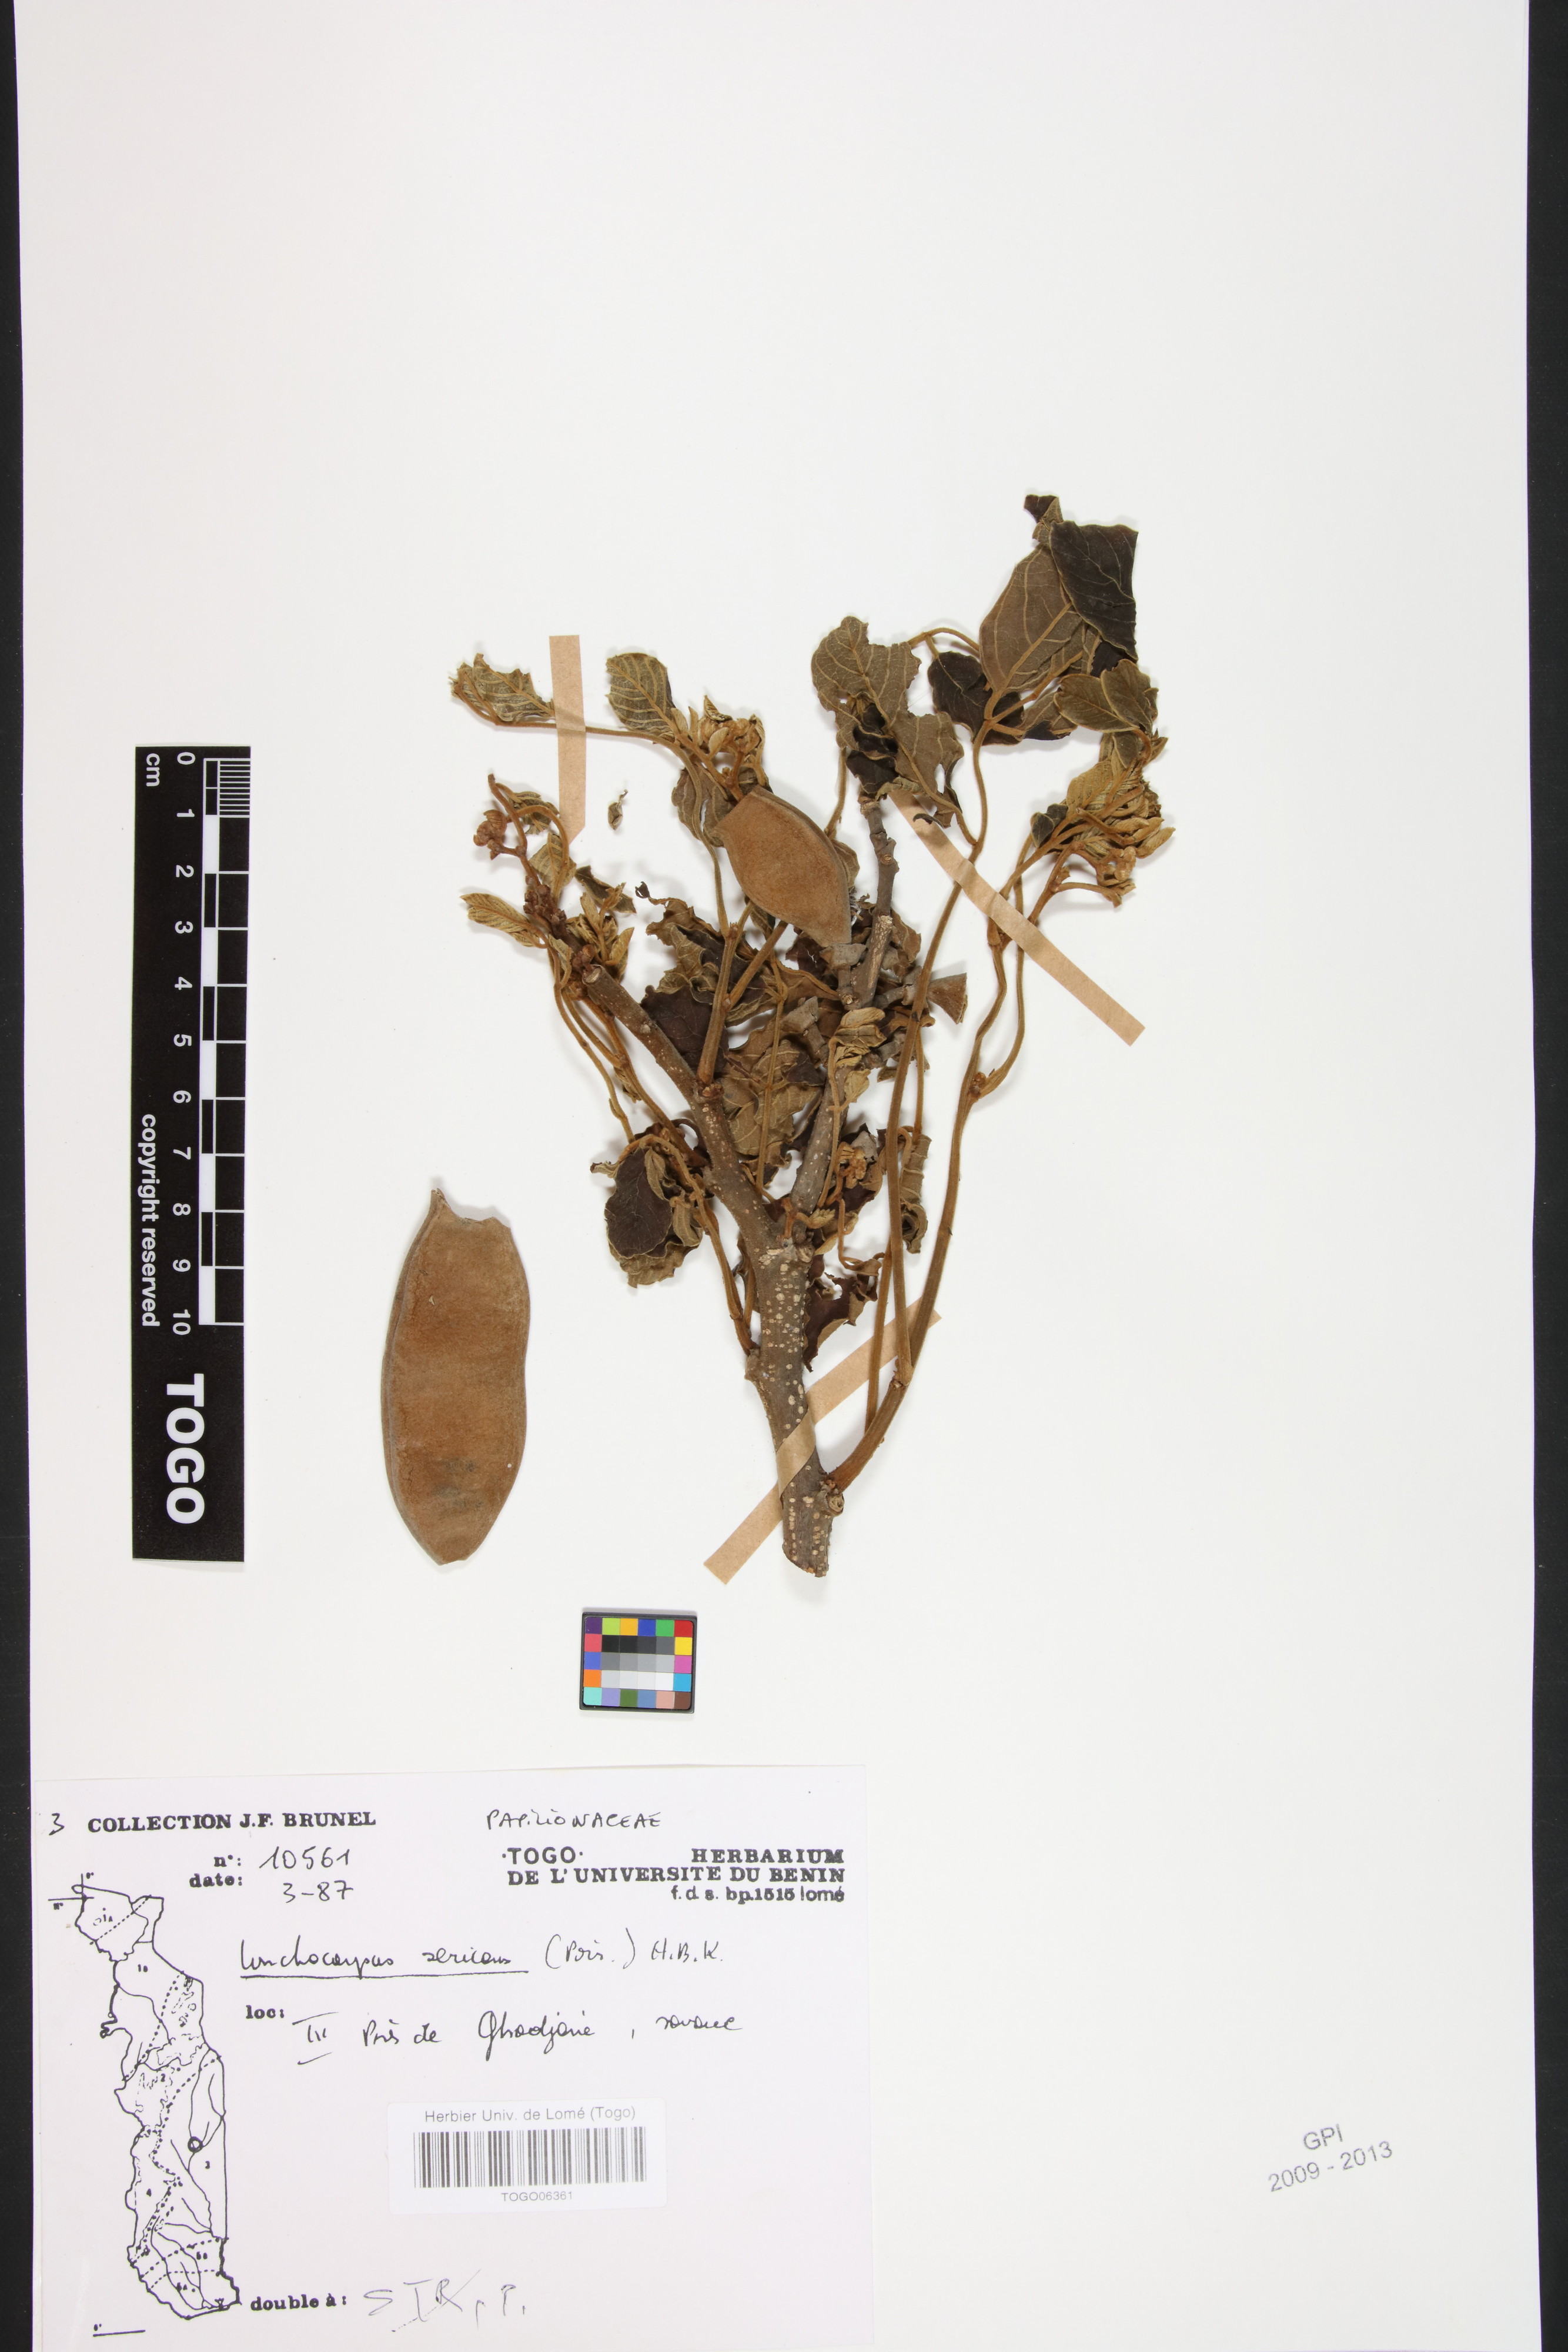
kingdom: Plantae
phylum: Tracheophyta
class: Magnoliopsida
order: Fabales
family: Fabaceae
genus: Lonchocarpus
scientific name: Lonchocarpus sericeus
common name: Savonette
